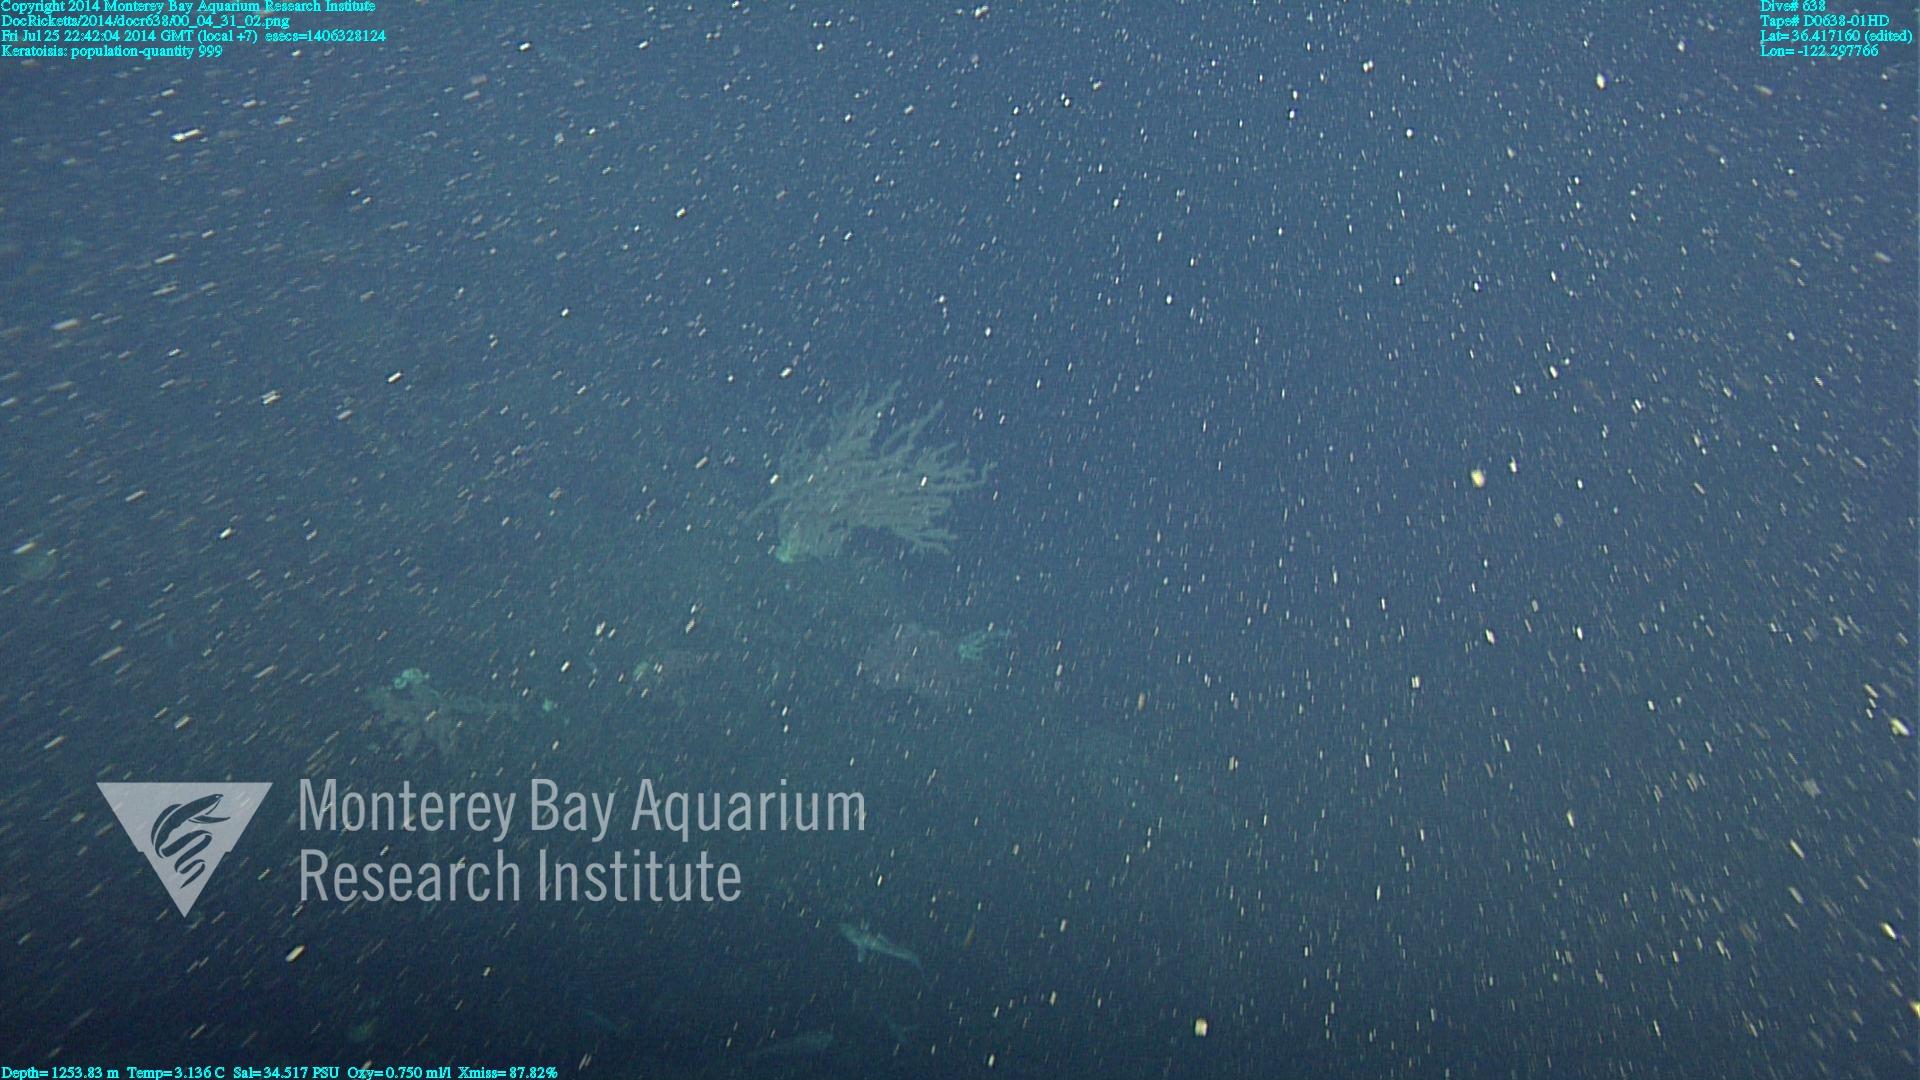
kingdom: Animalia
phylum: Cnidaria
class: Anthozoa
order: Scleralcyonacea
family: Keratoisididae
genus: Keratoisis
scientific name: Keratoisis
